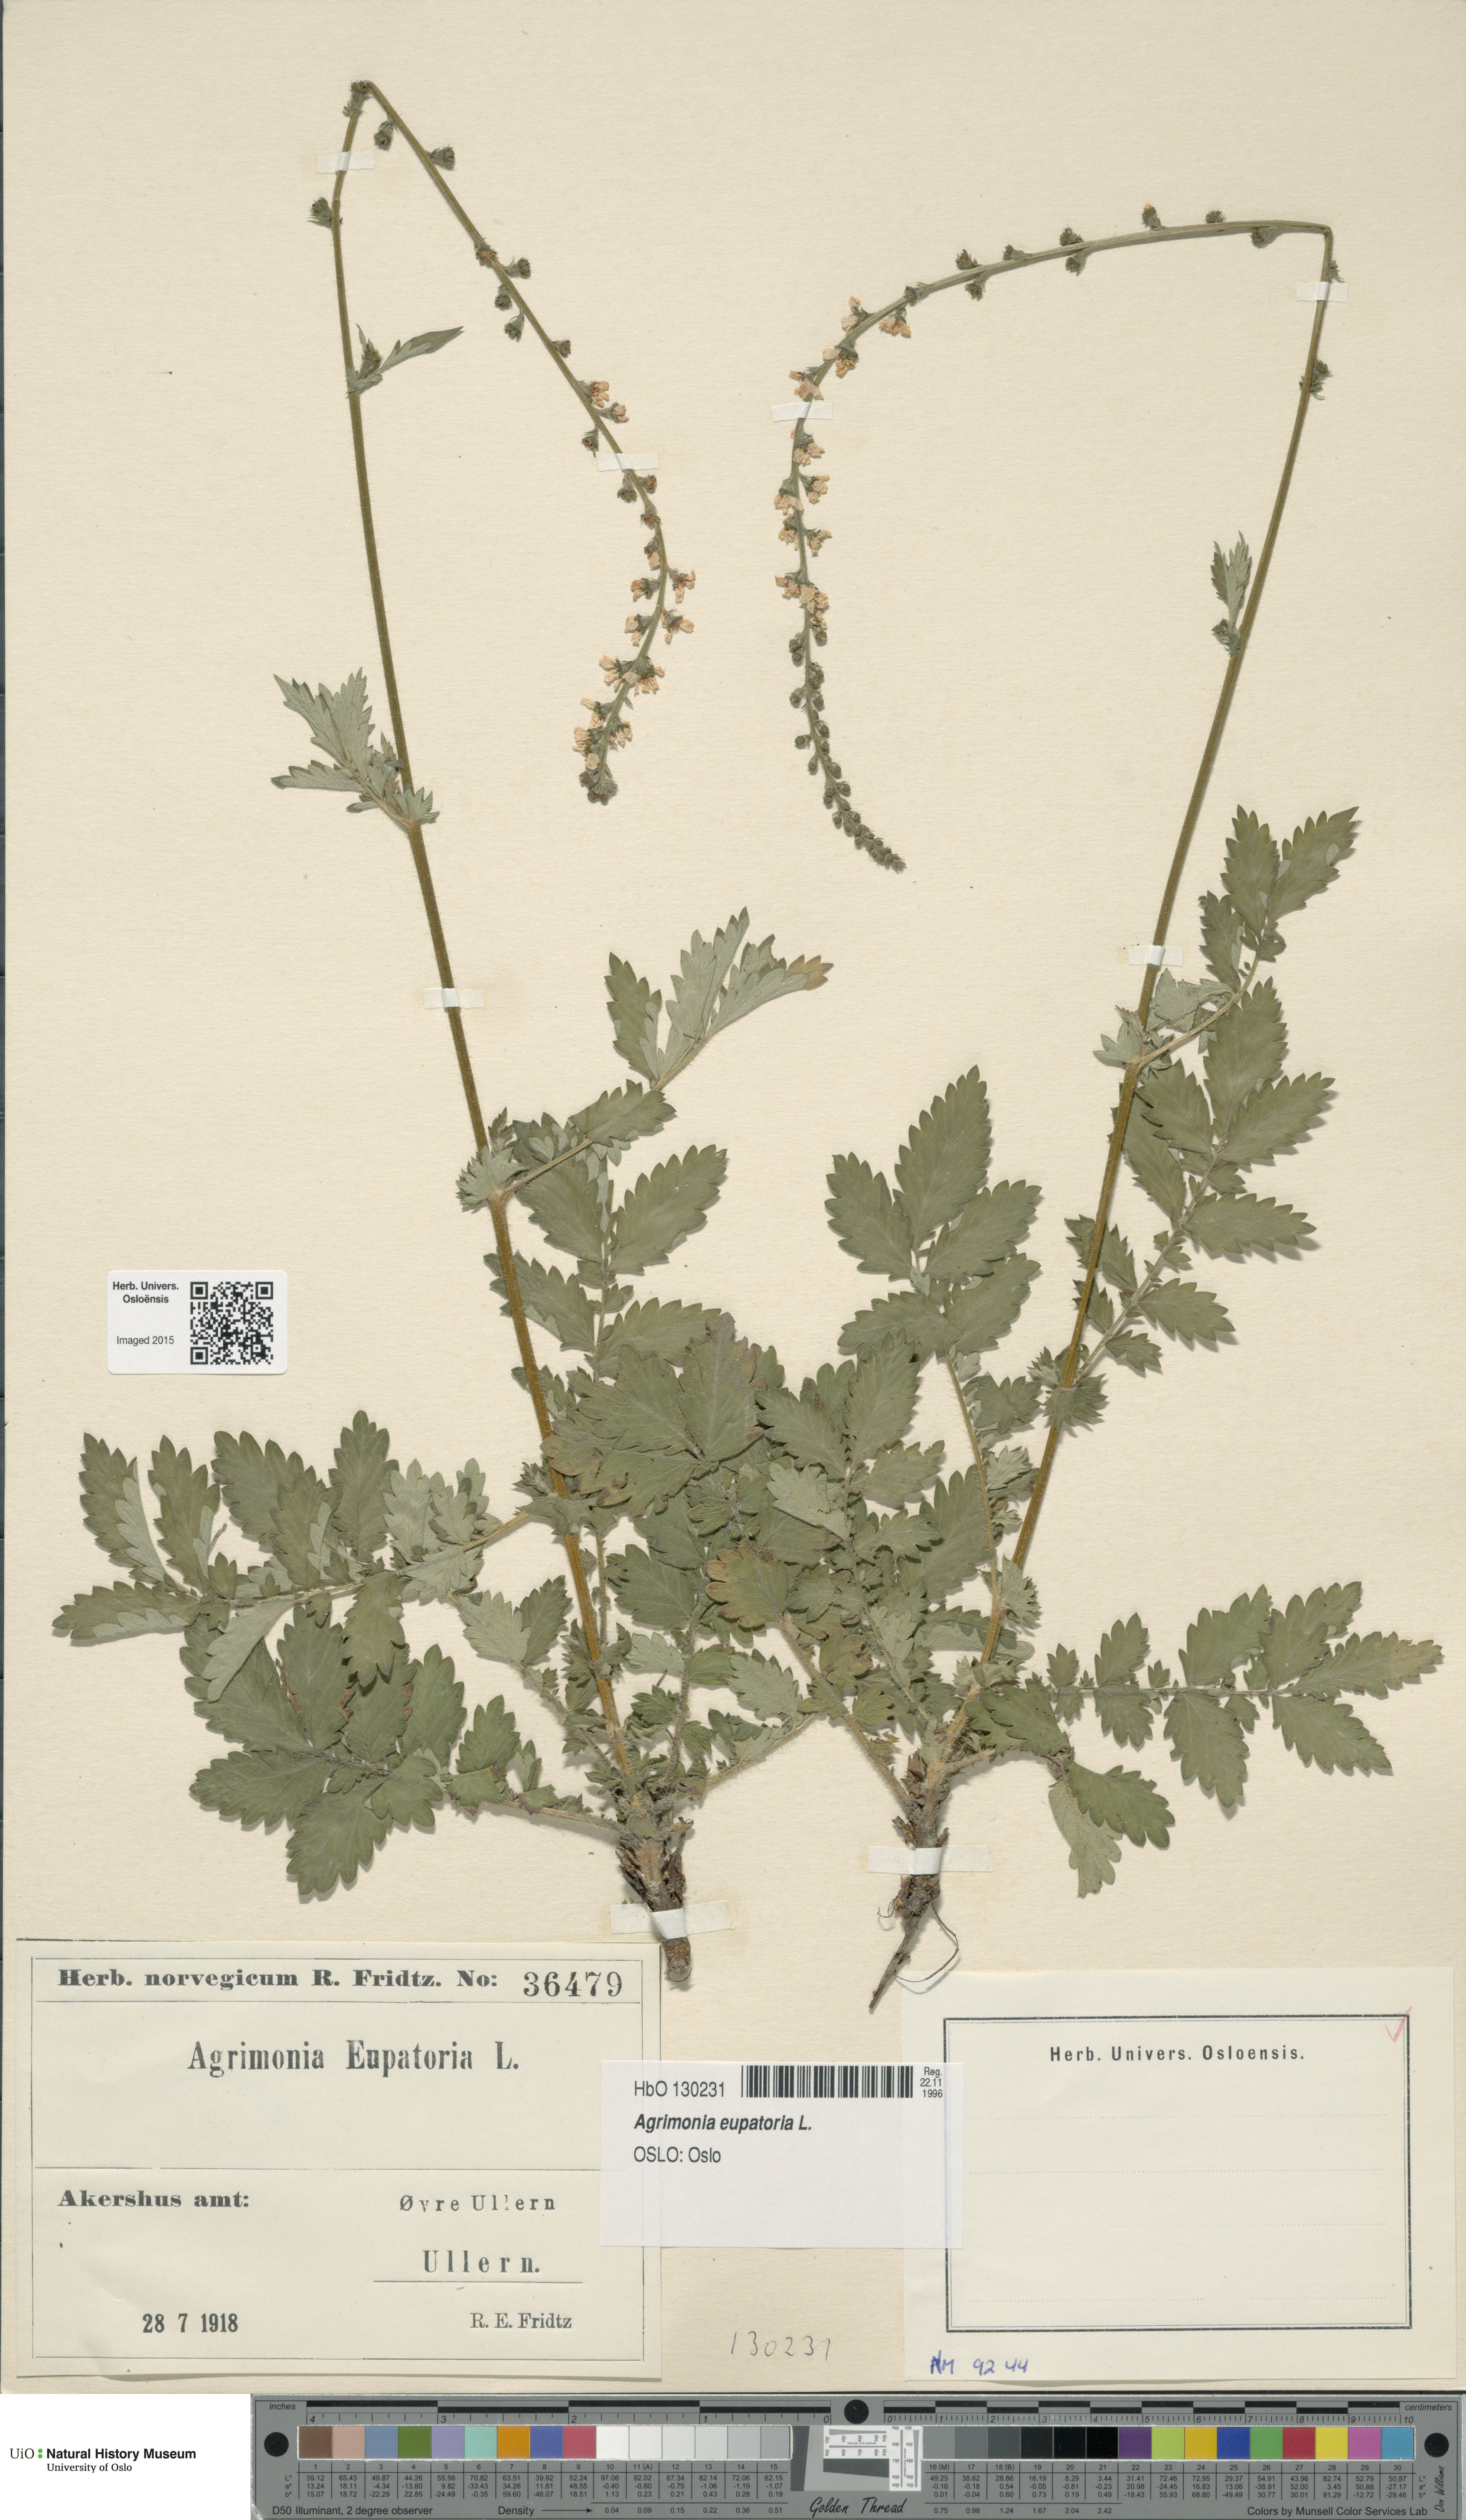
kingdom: Plantae
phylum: Tracheophyta
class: Magnoliopsida
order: Rosales
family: Rosaceae
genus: Agrimonia
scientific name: Agrimonia eupatoria
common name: Agrimony
